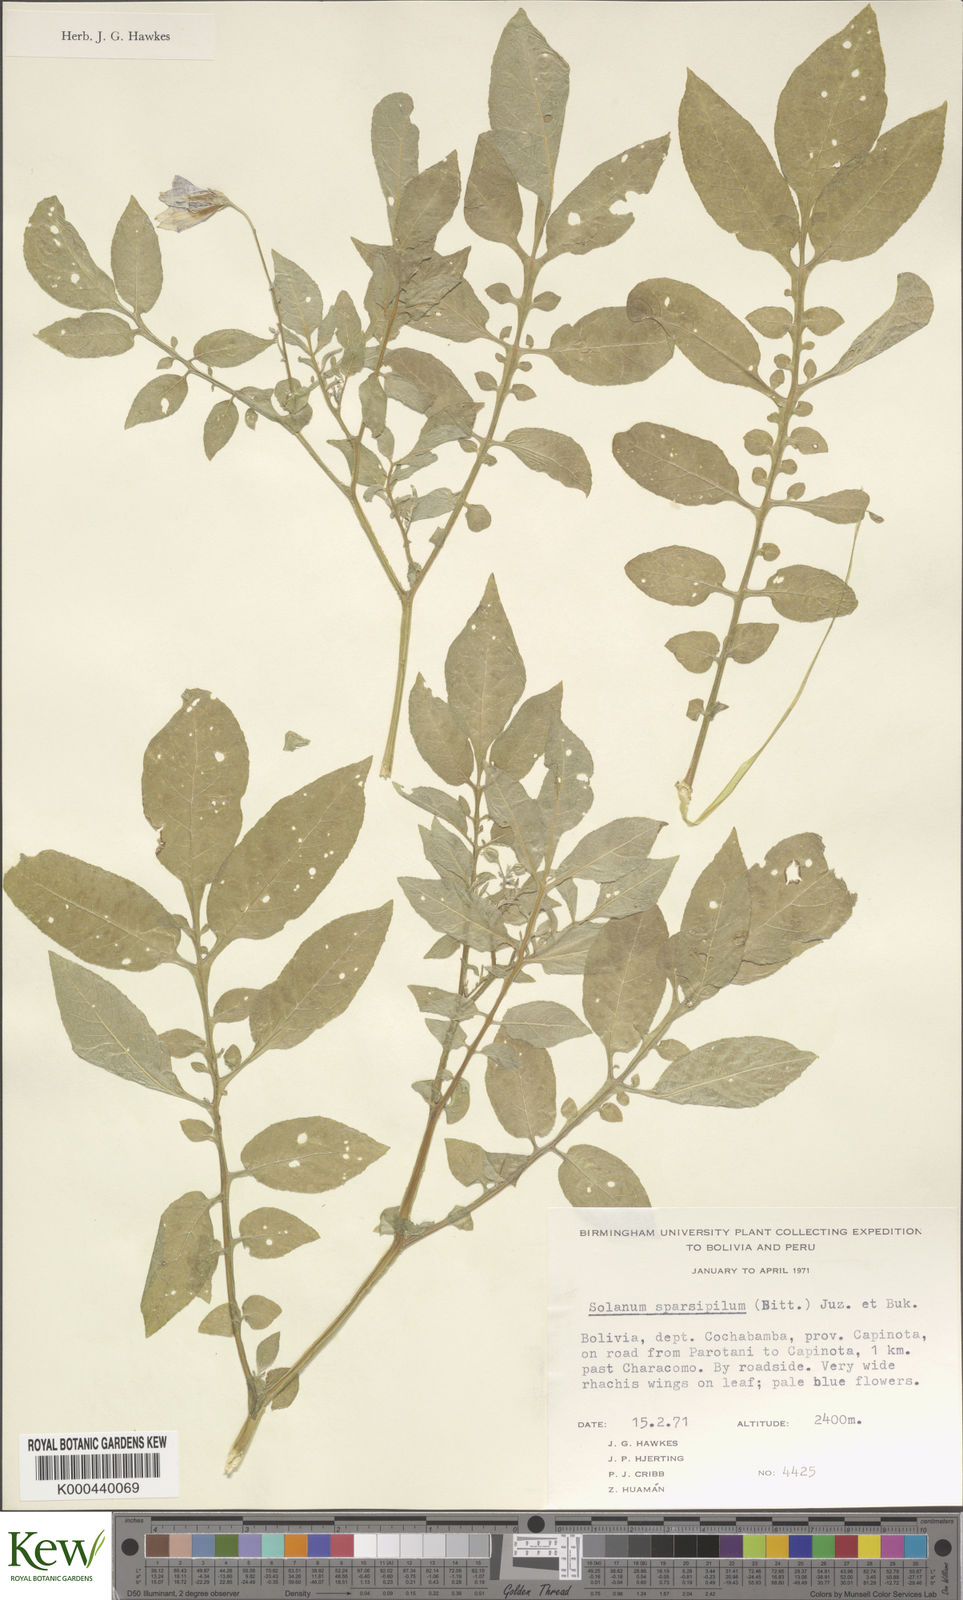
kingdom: Plantae
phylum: Tracheophyta
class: Magnoliopsida
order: Solanales
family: Solanaceae
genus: Solanum
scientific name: Solanum brevicaule
